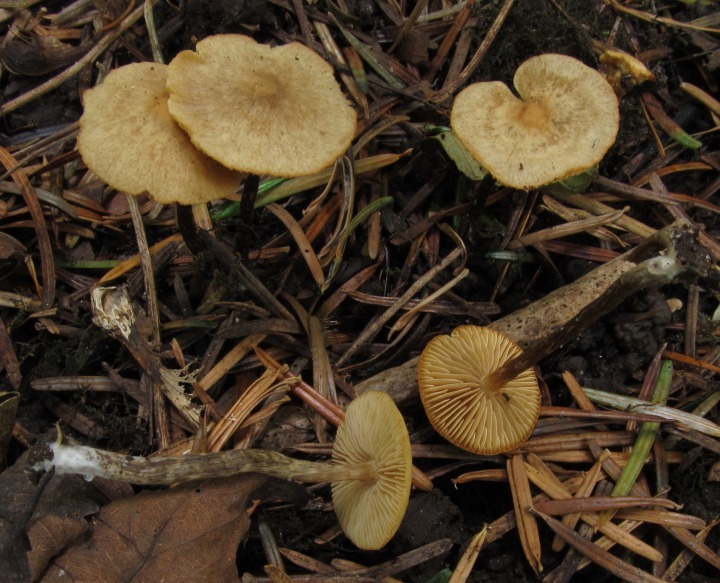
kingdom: Fungi
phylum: Basidiomycota
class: Agaricomycetes
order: Agaricales
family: Hymenogastraceae
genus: Naucoria
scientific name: Naucoria escharioides
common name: lys elle-knaphat
